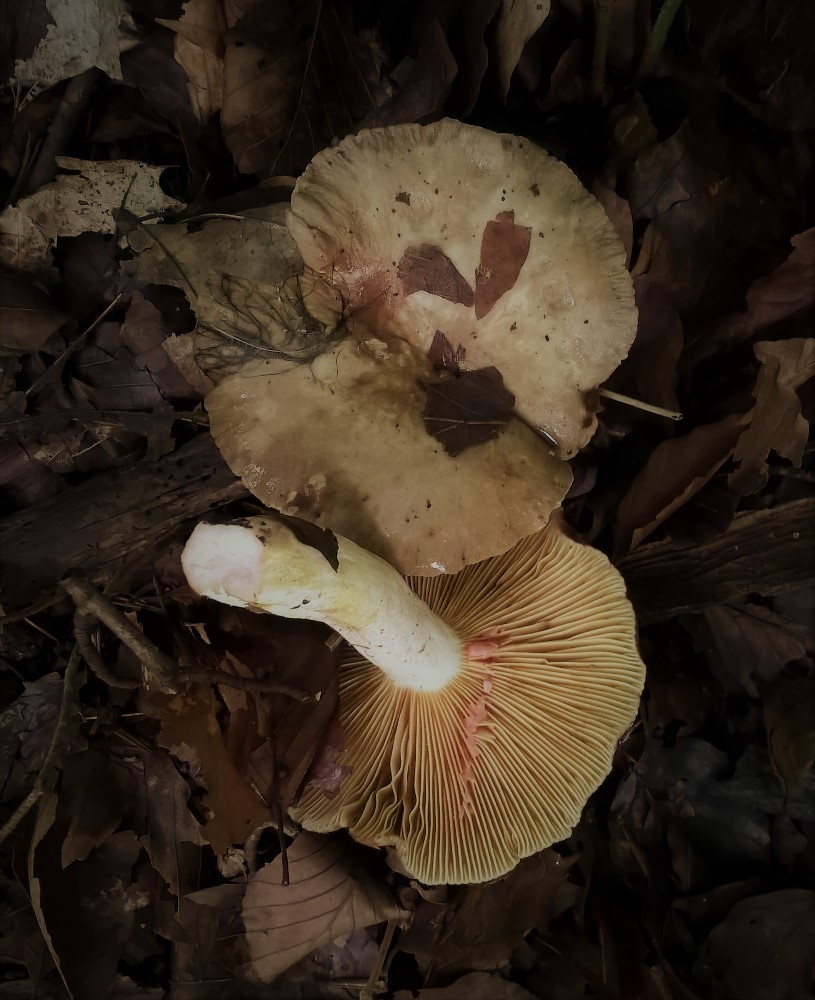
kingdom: Fungi
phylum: Basidiomycota
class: Agaricomycetes
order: Russulales
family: Russulaceae
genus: Lactarius
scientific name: Lactarius acris
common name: rosamælket mælkehat
